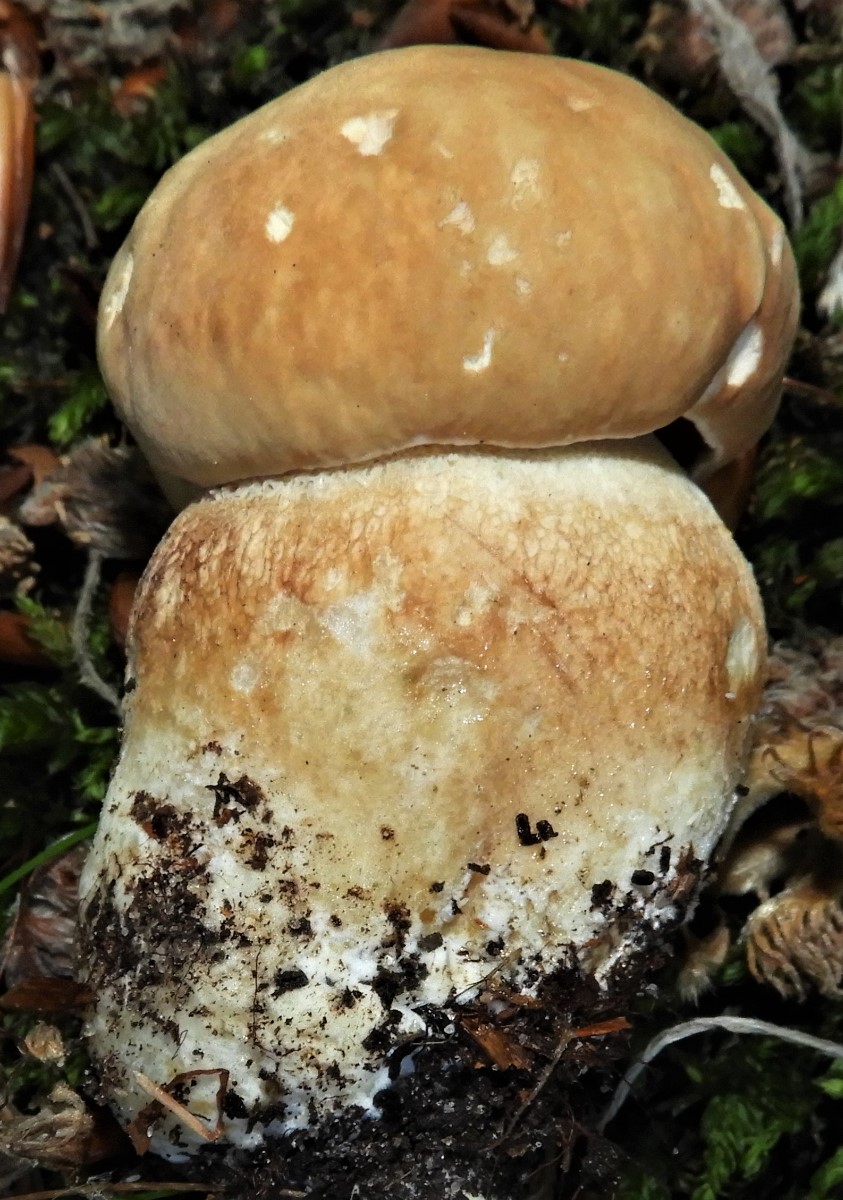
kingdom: Fungi
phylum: Basidiomycota
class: Agaricomycetes
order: Boletales
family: Boletaceae
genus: Boletus
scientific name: Boletus reticulatus
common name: sommer-rørhat
